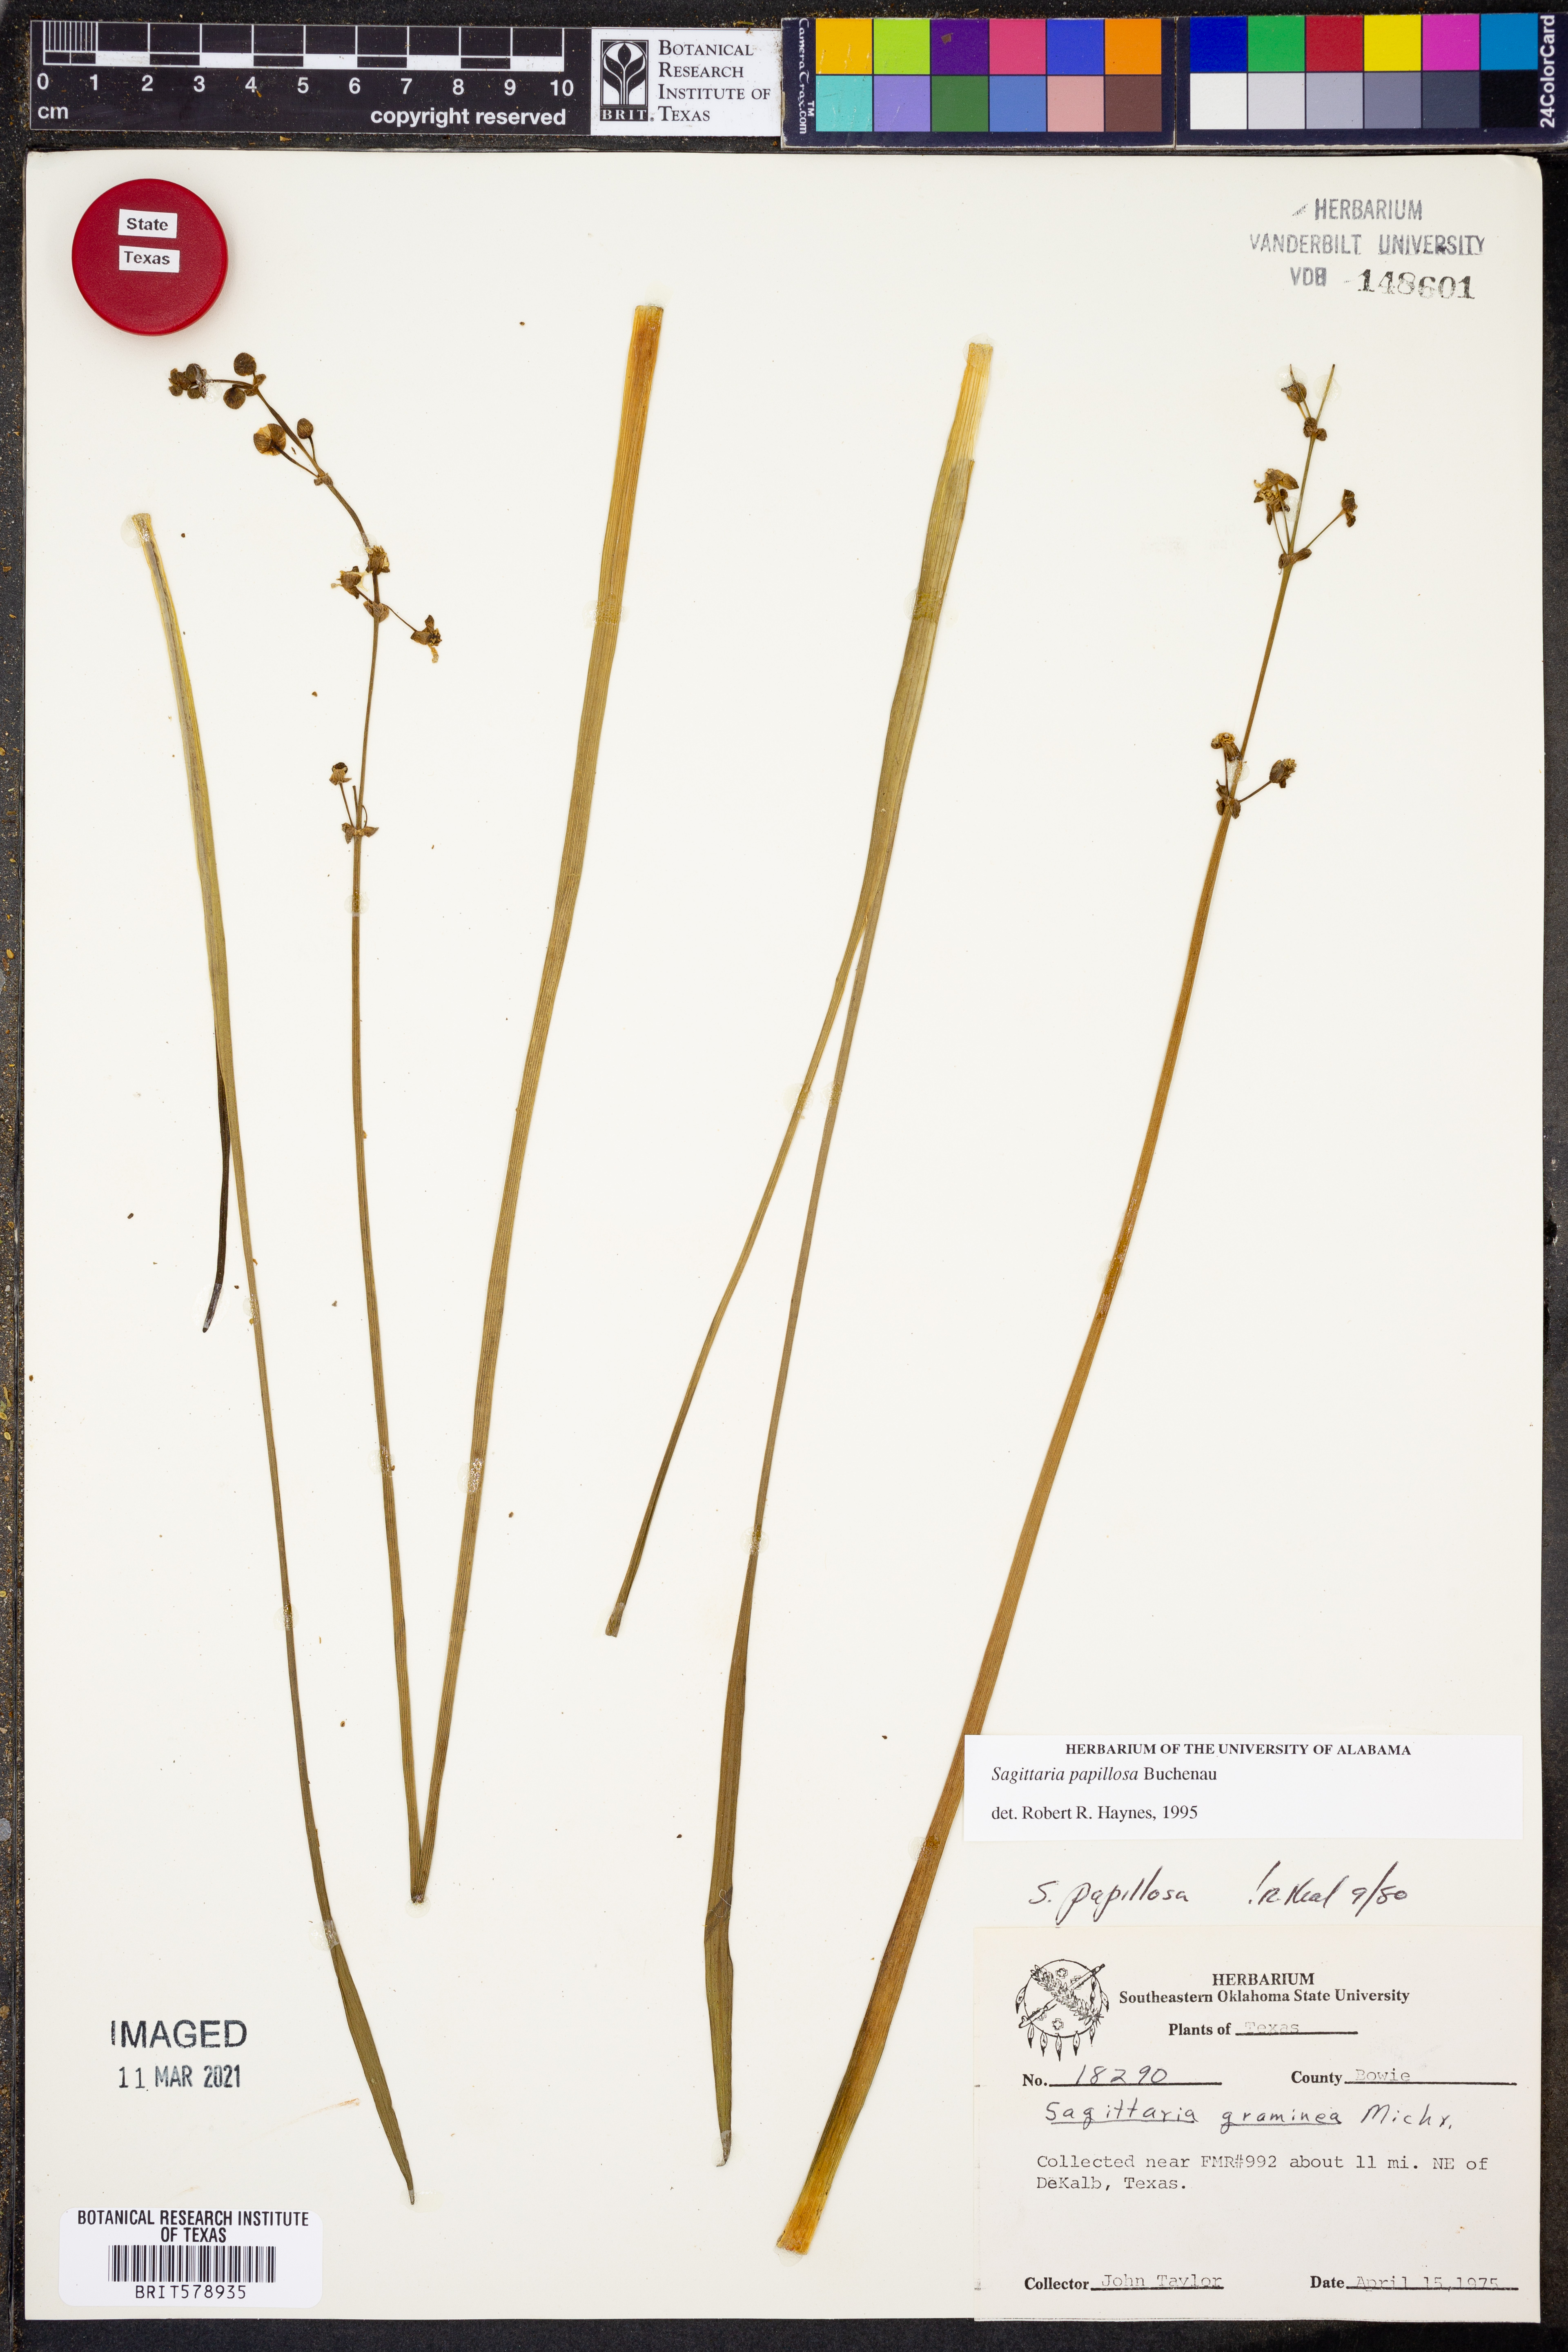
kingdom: Plantae
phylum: Tracheophyta
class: Liliopsida
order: Alismatales
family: Alismataceae
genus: Sagittaria
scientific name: Sagittaria papillosa
